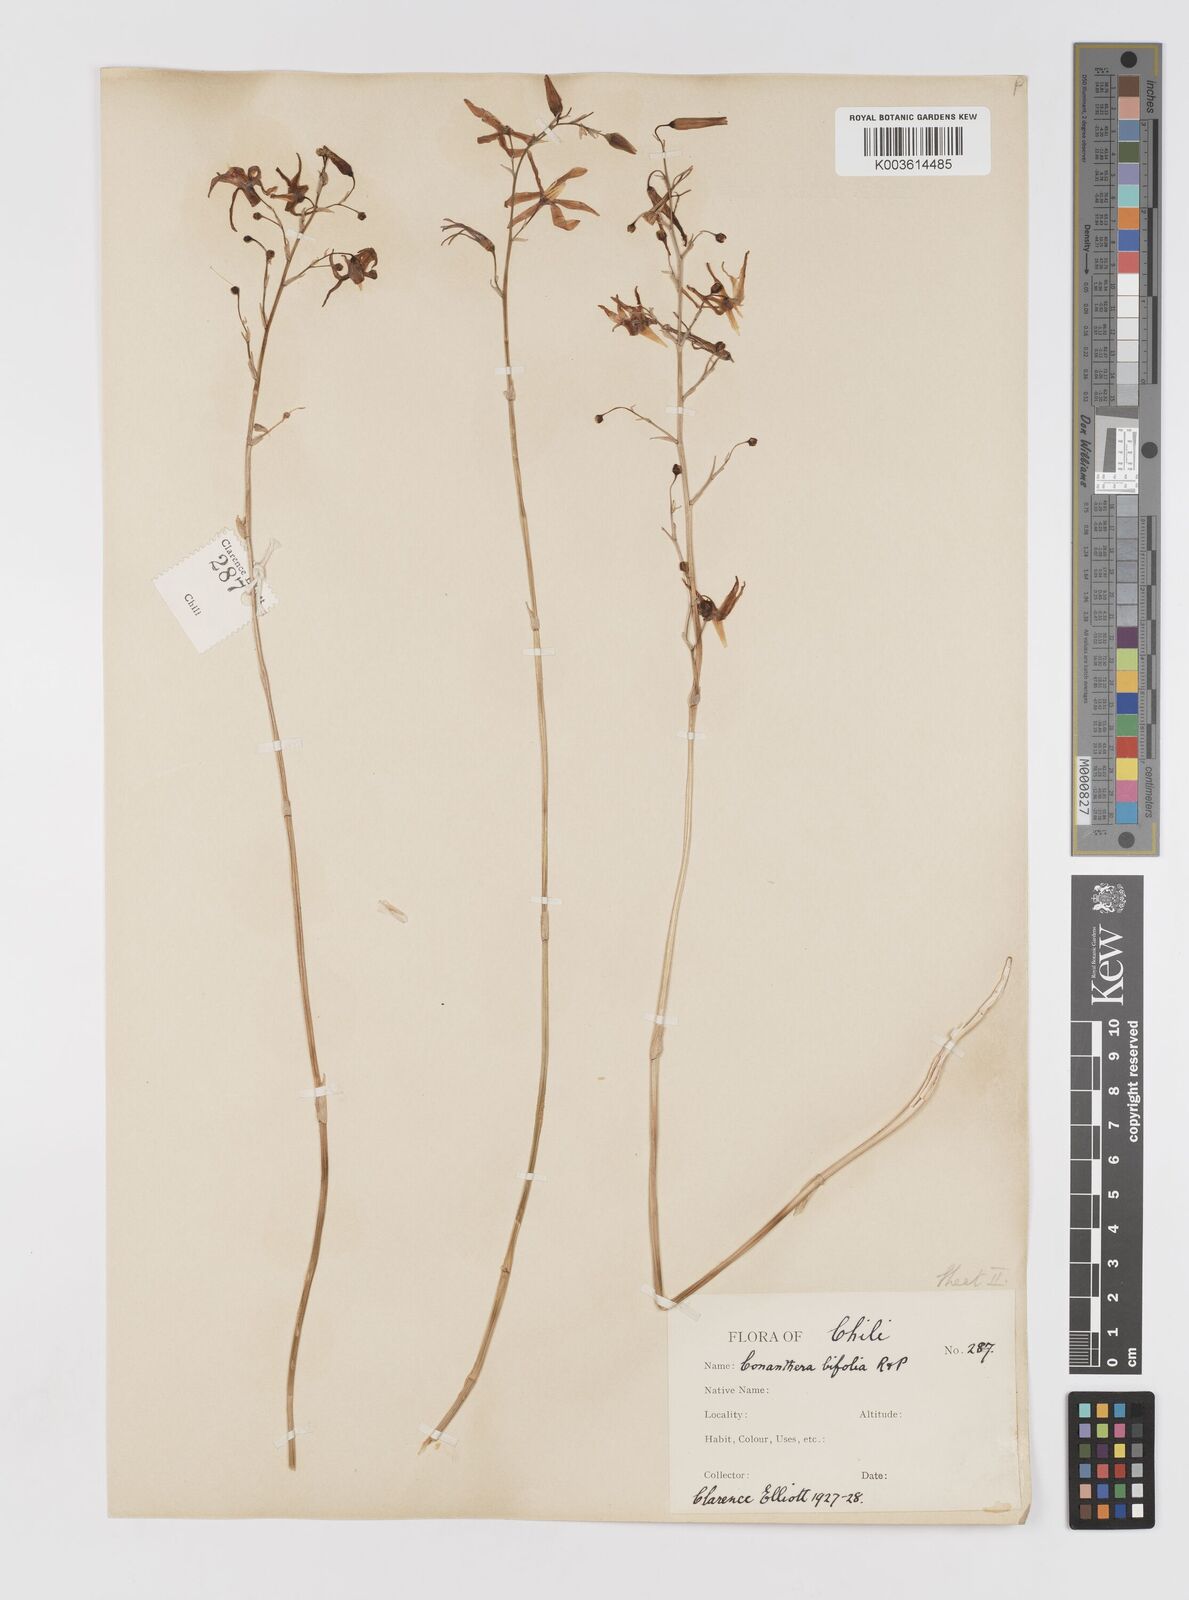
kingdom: Plantae
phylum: Tracheophyta
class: Liliopsida
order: Asparagales
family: Tecophilaeaceae
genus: Conanthera
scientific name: Conanthera bifolia
